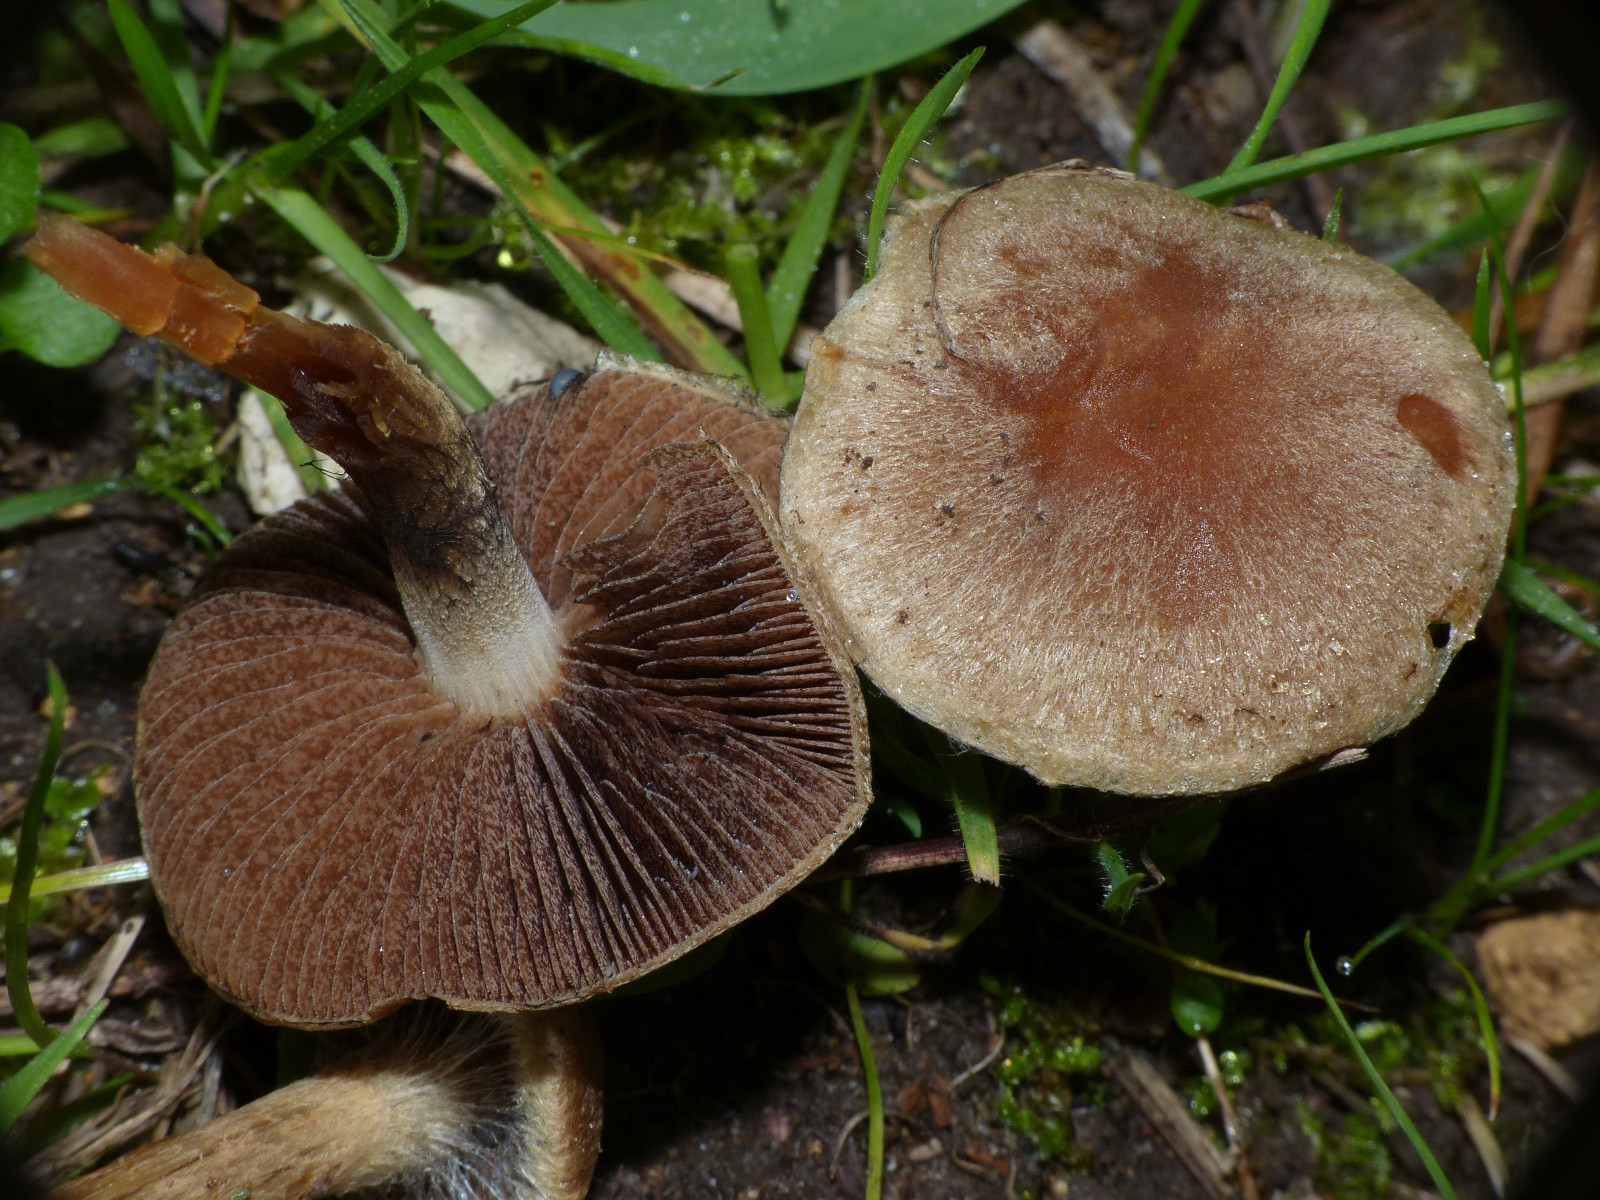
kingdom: Fungi
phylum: Basidiomycota
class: Agaricomycetes
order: Agaricales
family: Psathyrellaceae
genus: Lacrymaria
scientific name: Lacrymaria
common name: mørkhat
